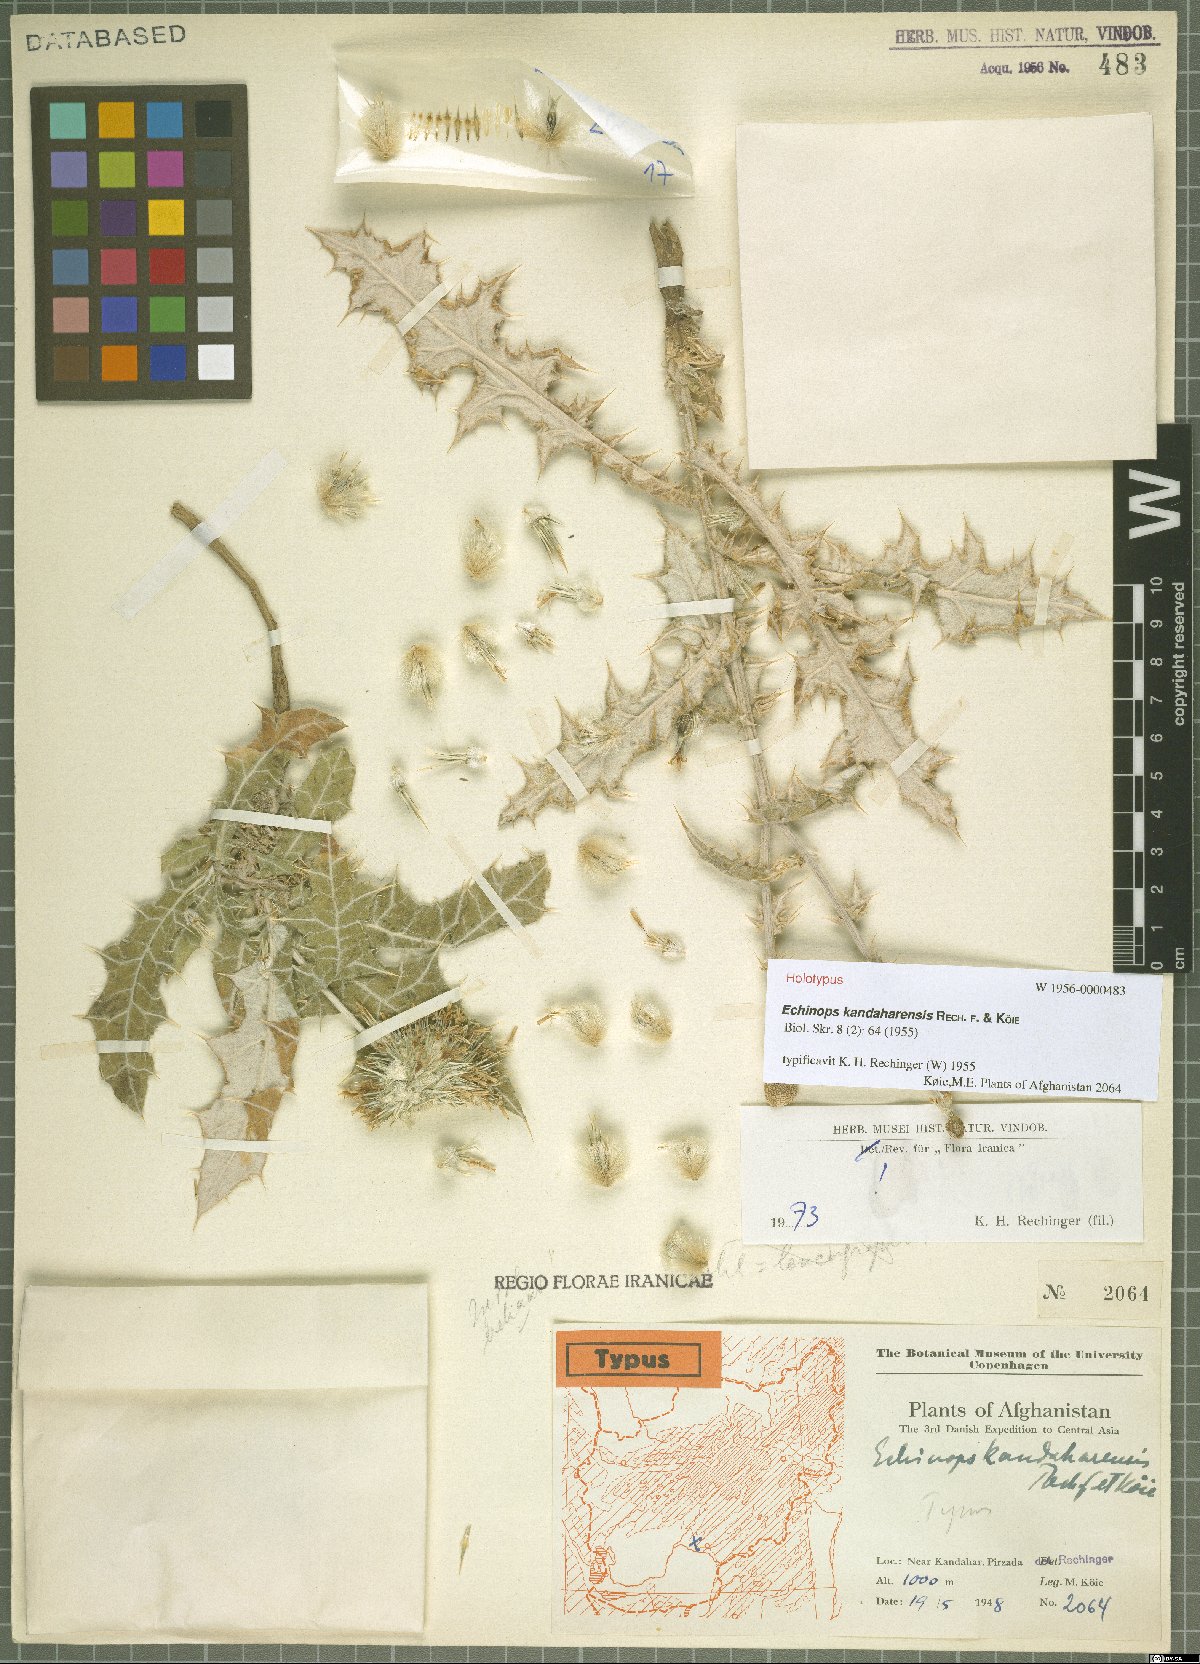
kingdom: Plantae
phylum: Tracheophyta
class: Magnoliopsida
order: Asterales
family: Asteraceae
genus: Echinops
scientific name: Echinops kandaharensis
